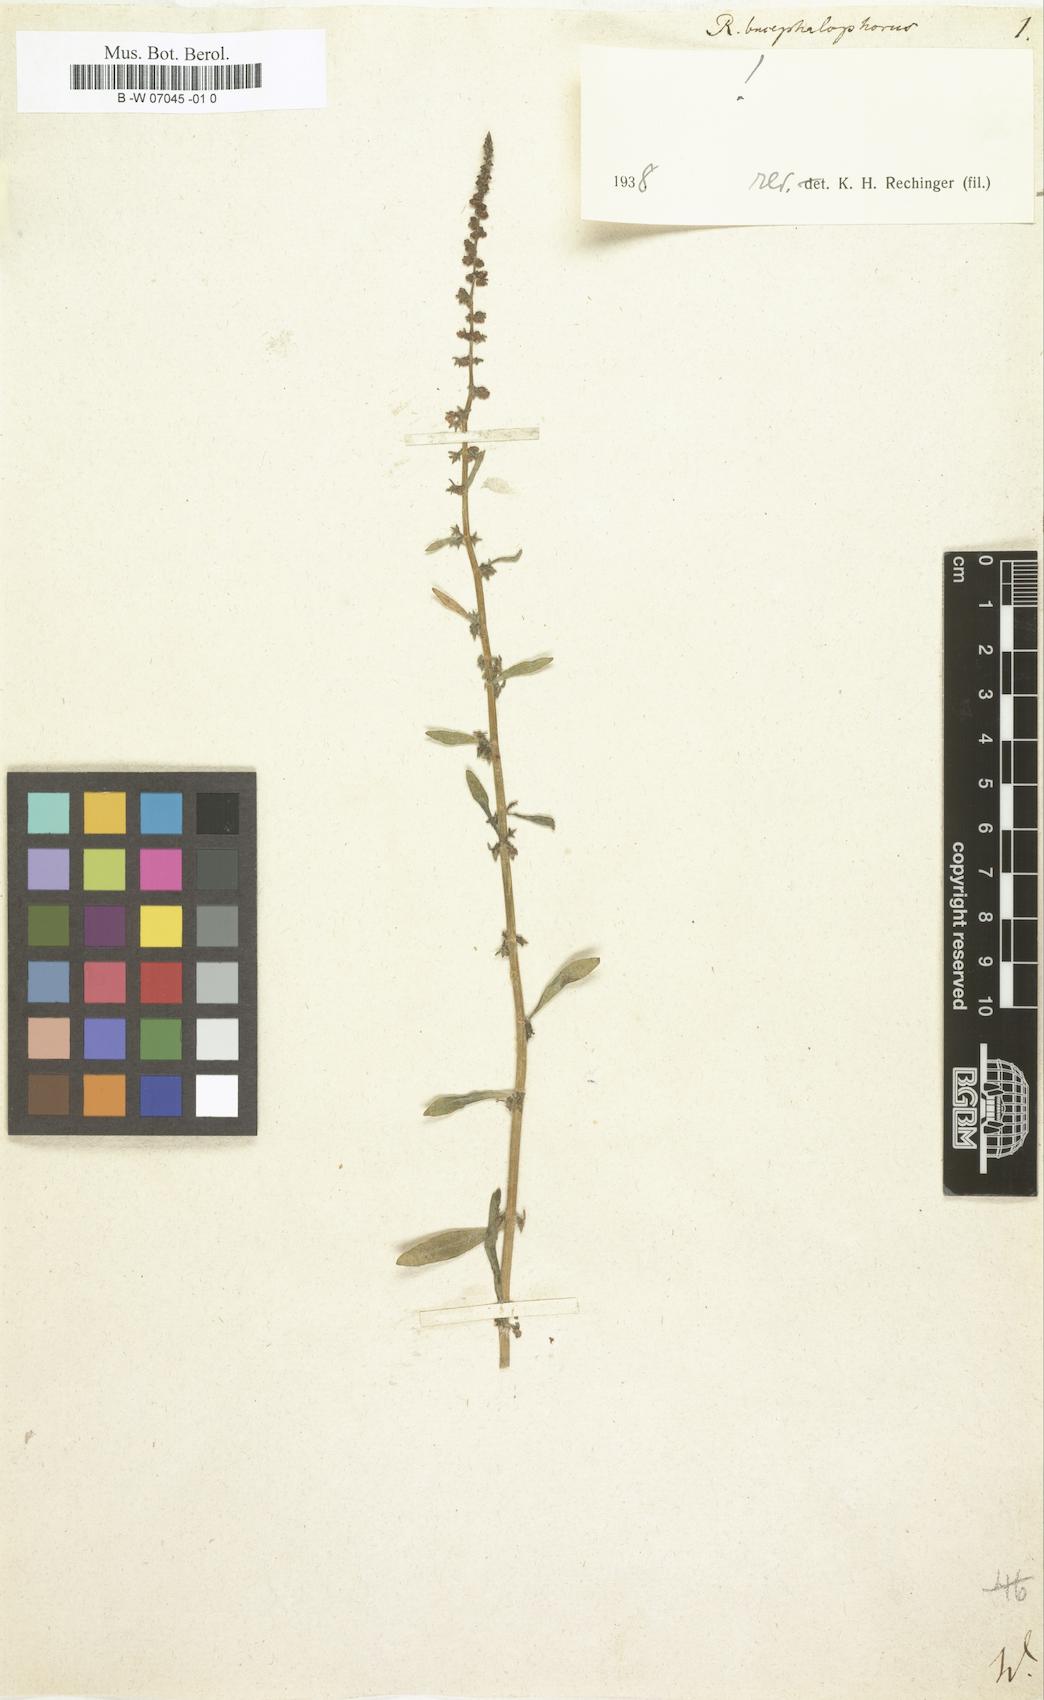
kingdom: Plantae
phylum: Tracheophyta
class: Magnoliopsida
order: Caryophyllales
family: Polygonaceae
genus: Rumex
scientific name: Rumex bucephalophorus
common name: Red dock
